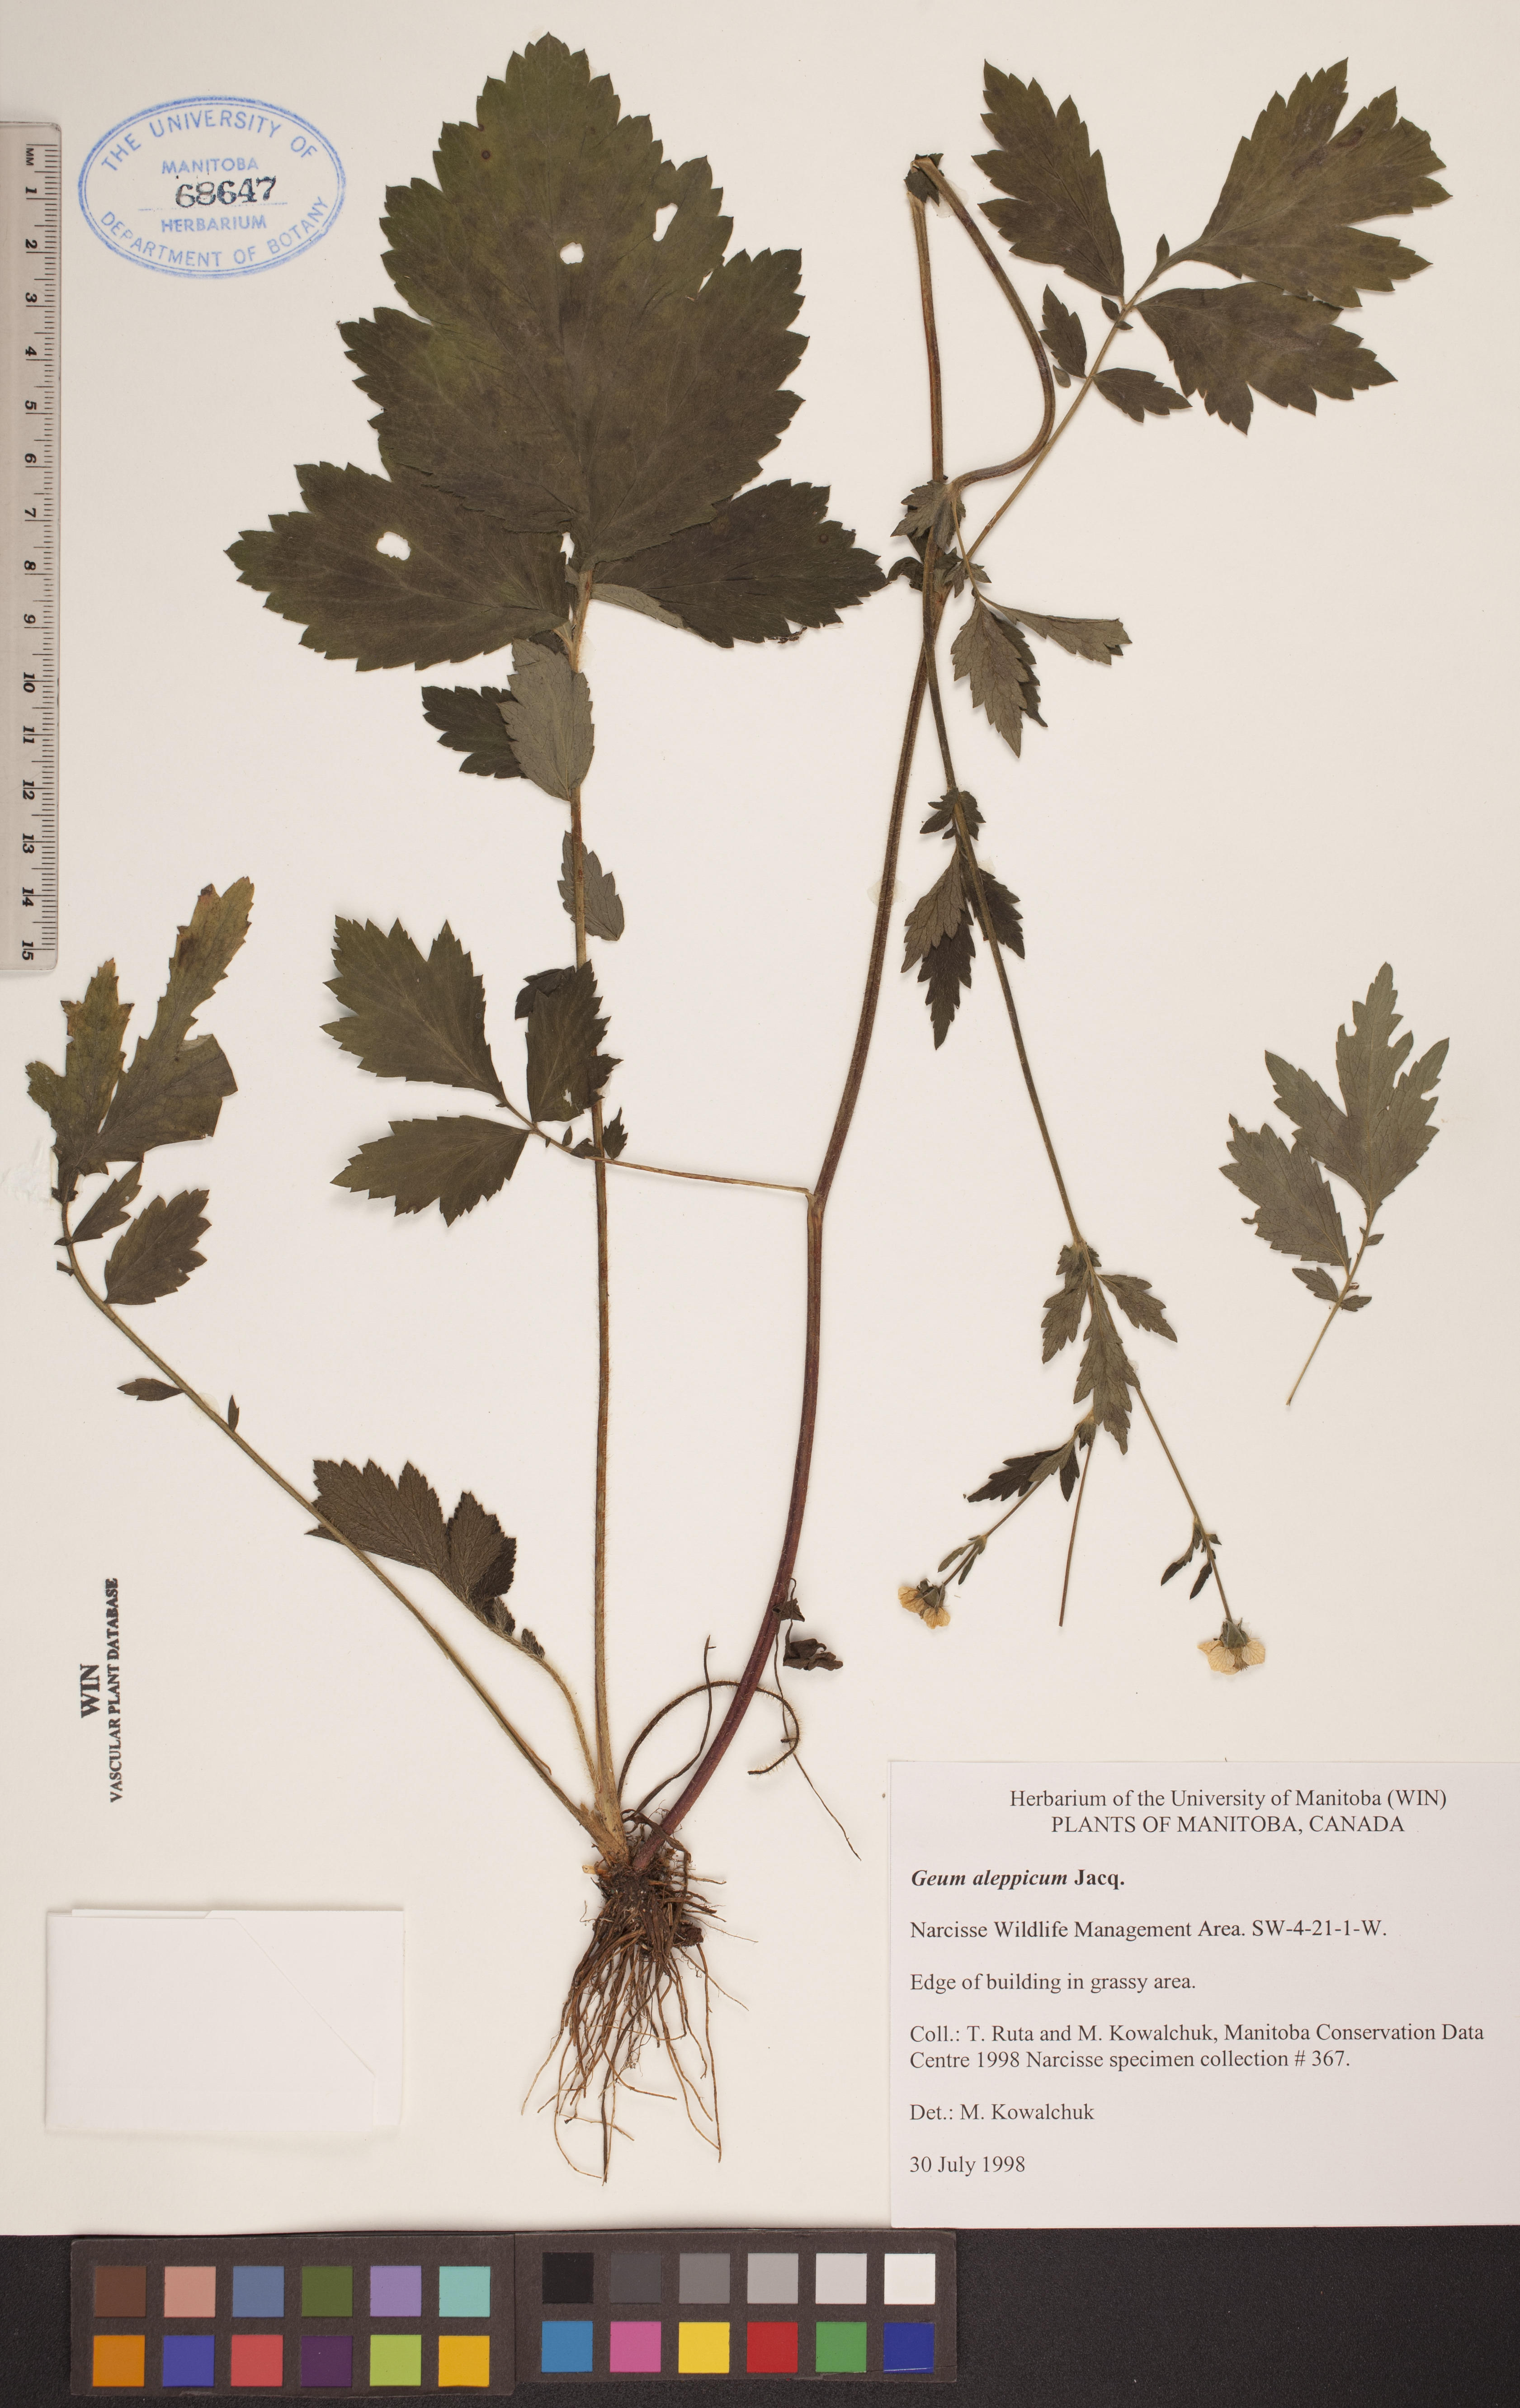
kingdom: Plantae
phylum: Tracheophyta
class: Magnoliopsida
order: Rosales
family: Rosaceae
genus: Geum
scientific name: Geum aleppicum
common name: Yellow avens
